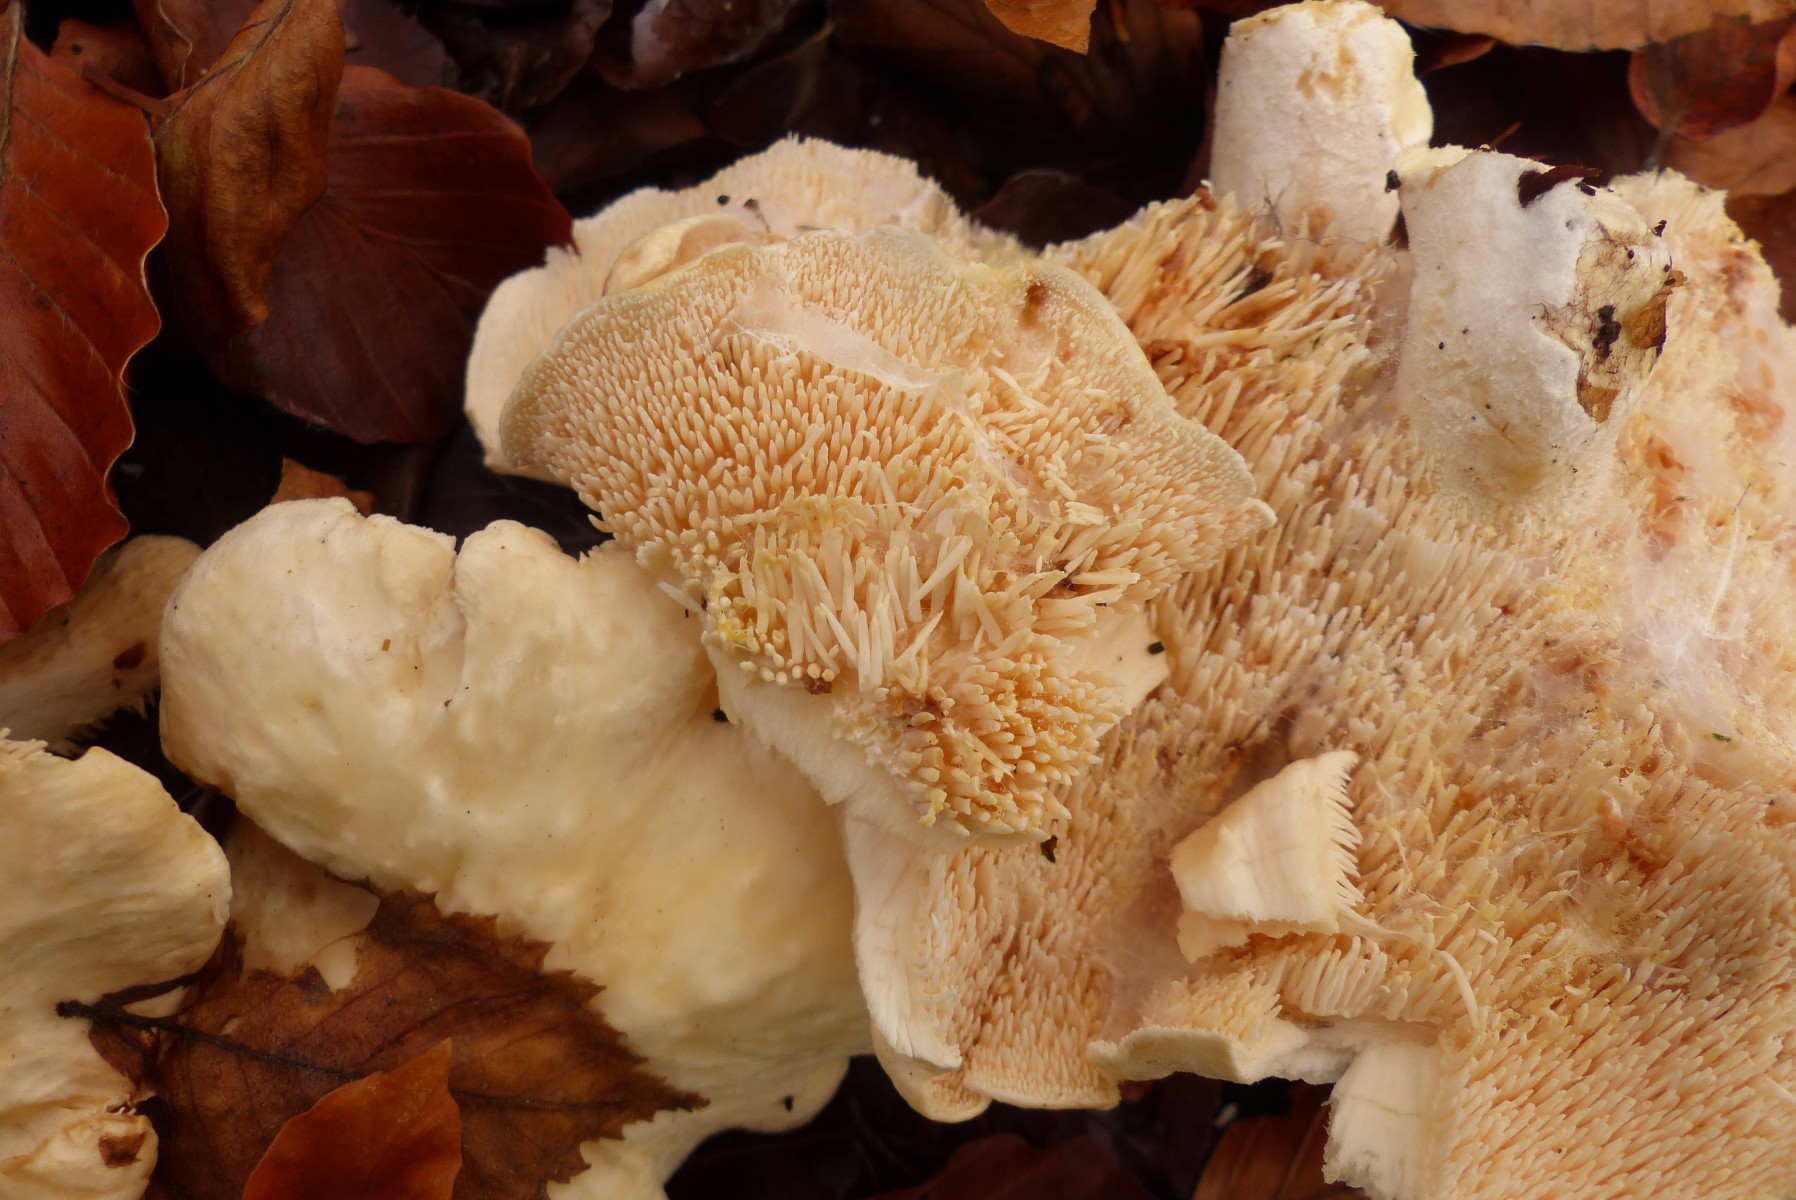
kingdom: Fungi
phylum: Basidiomycota
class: Agaricomycetes
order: Cantharellales
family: Hydnaceae
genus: Hydnum
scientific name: Hydnum repandum
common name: almindelig pigsvamp
